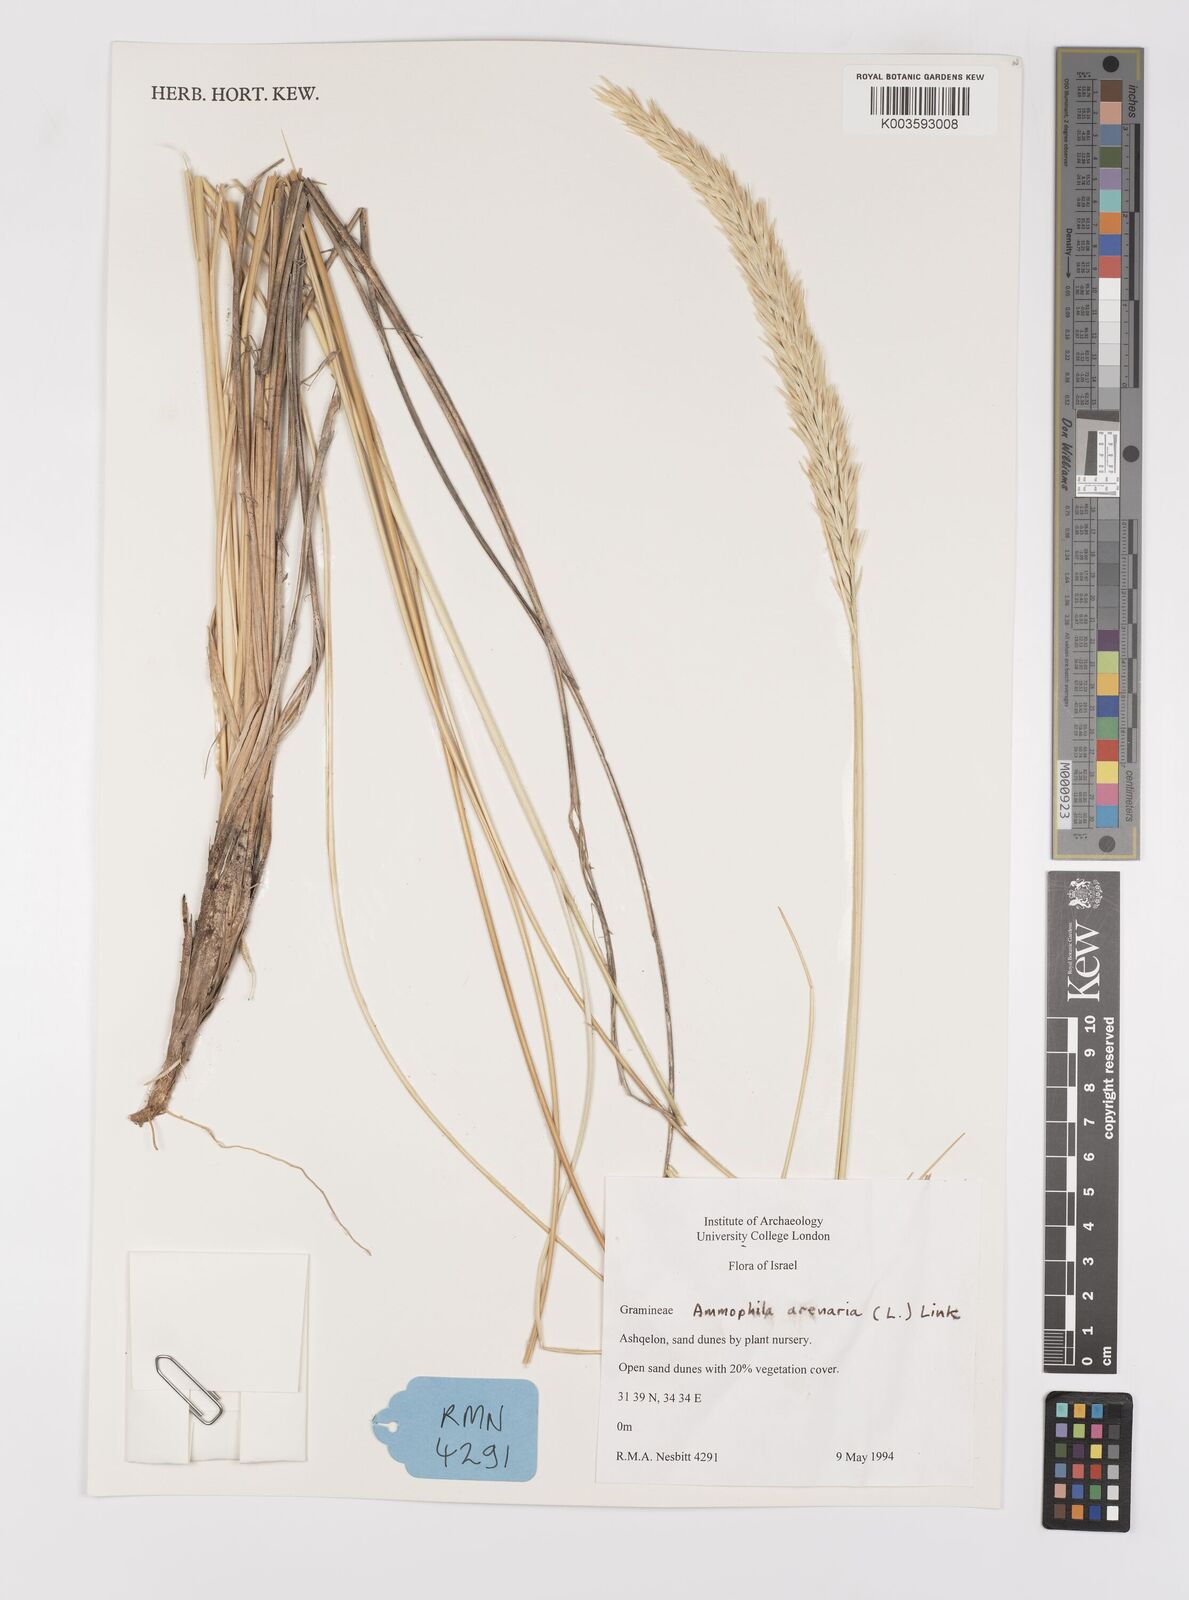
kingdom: Plantae
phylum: Tracheophyta
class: Liliopsida
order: Poales
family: Poaceae
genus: Calamagrostis
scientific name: Calamagrostis arenaria
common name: European beachgrass
